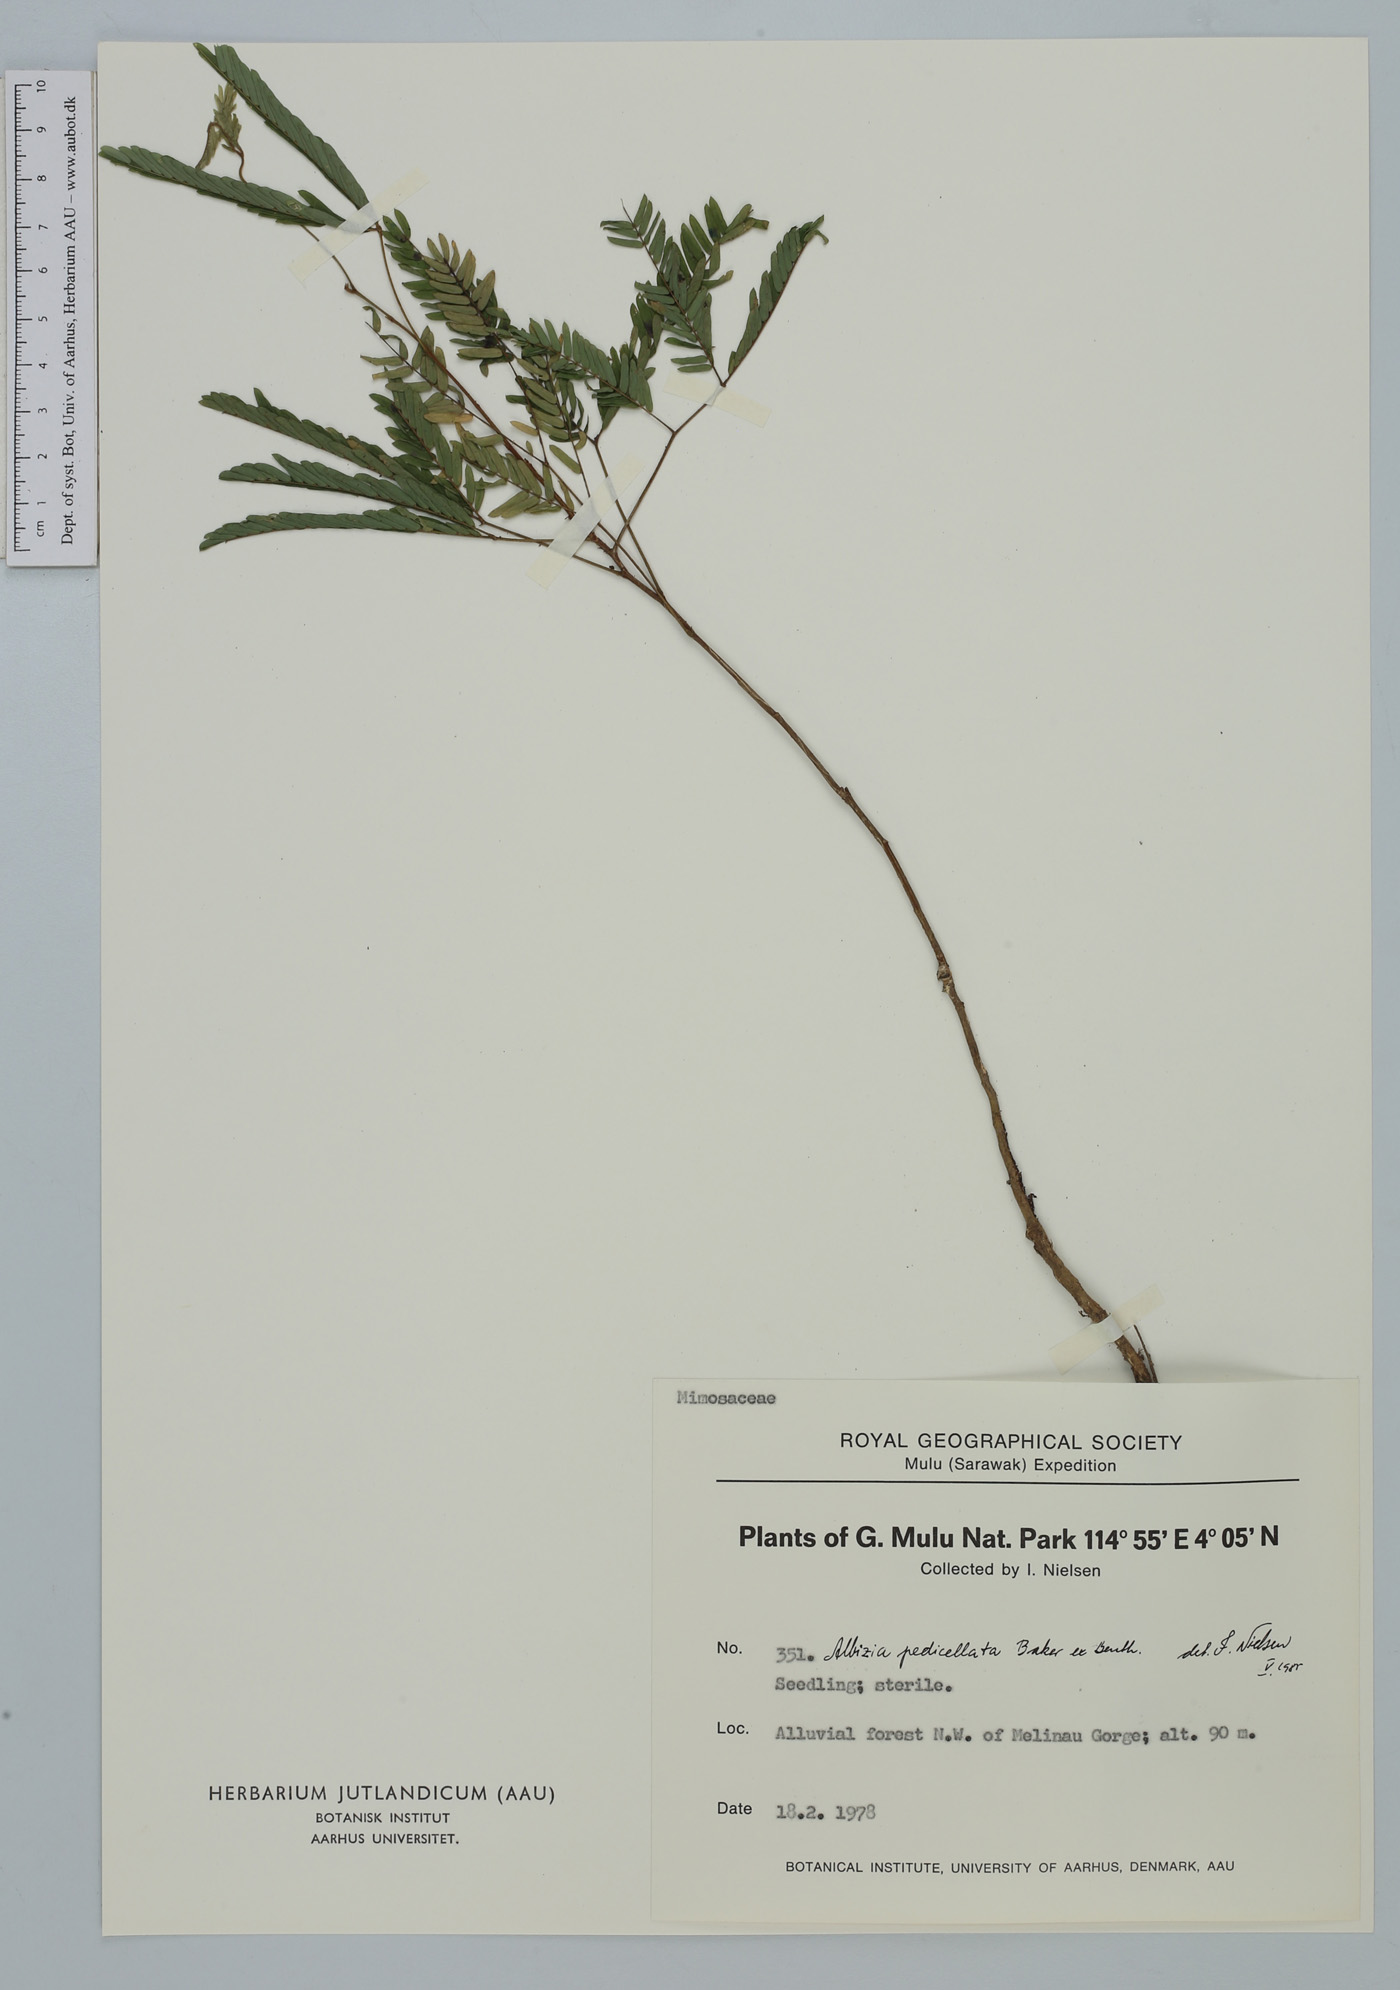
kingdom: Plantae
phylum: Tracheophyta
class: Magnoliopsida
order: Fabales
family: Fabaceae
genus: Albizia
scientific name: Albizia pedicellata
